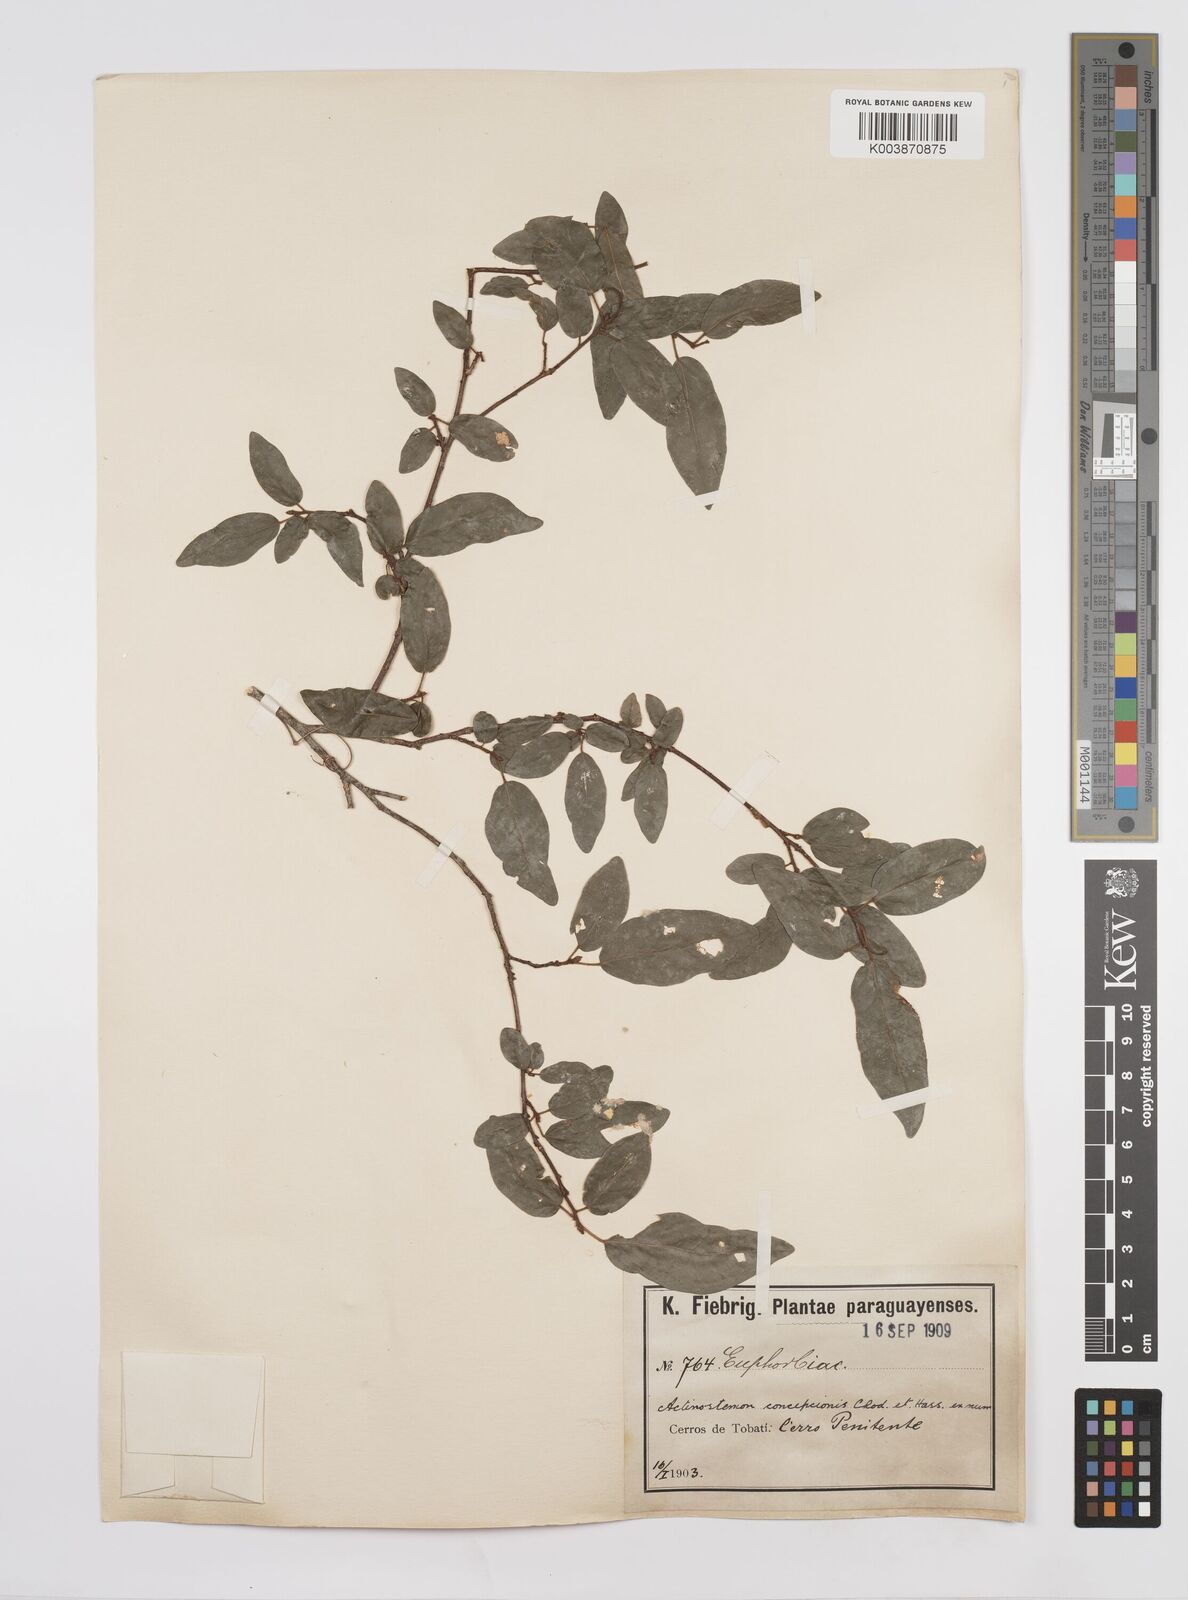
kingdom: Plantae
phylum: Tracheophyta
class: Magnoliopsida
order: Malpighiales
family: Euphorbiaceae
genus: Actinostemon
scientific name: Actinostemon concepcionis
